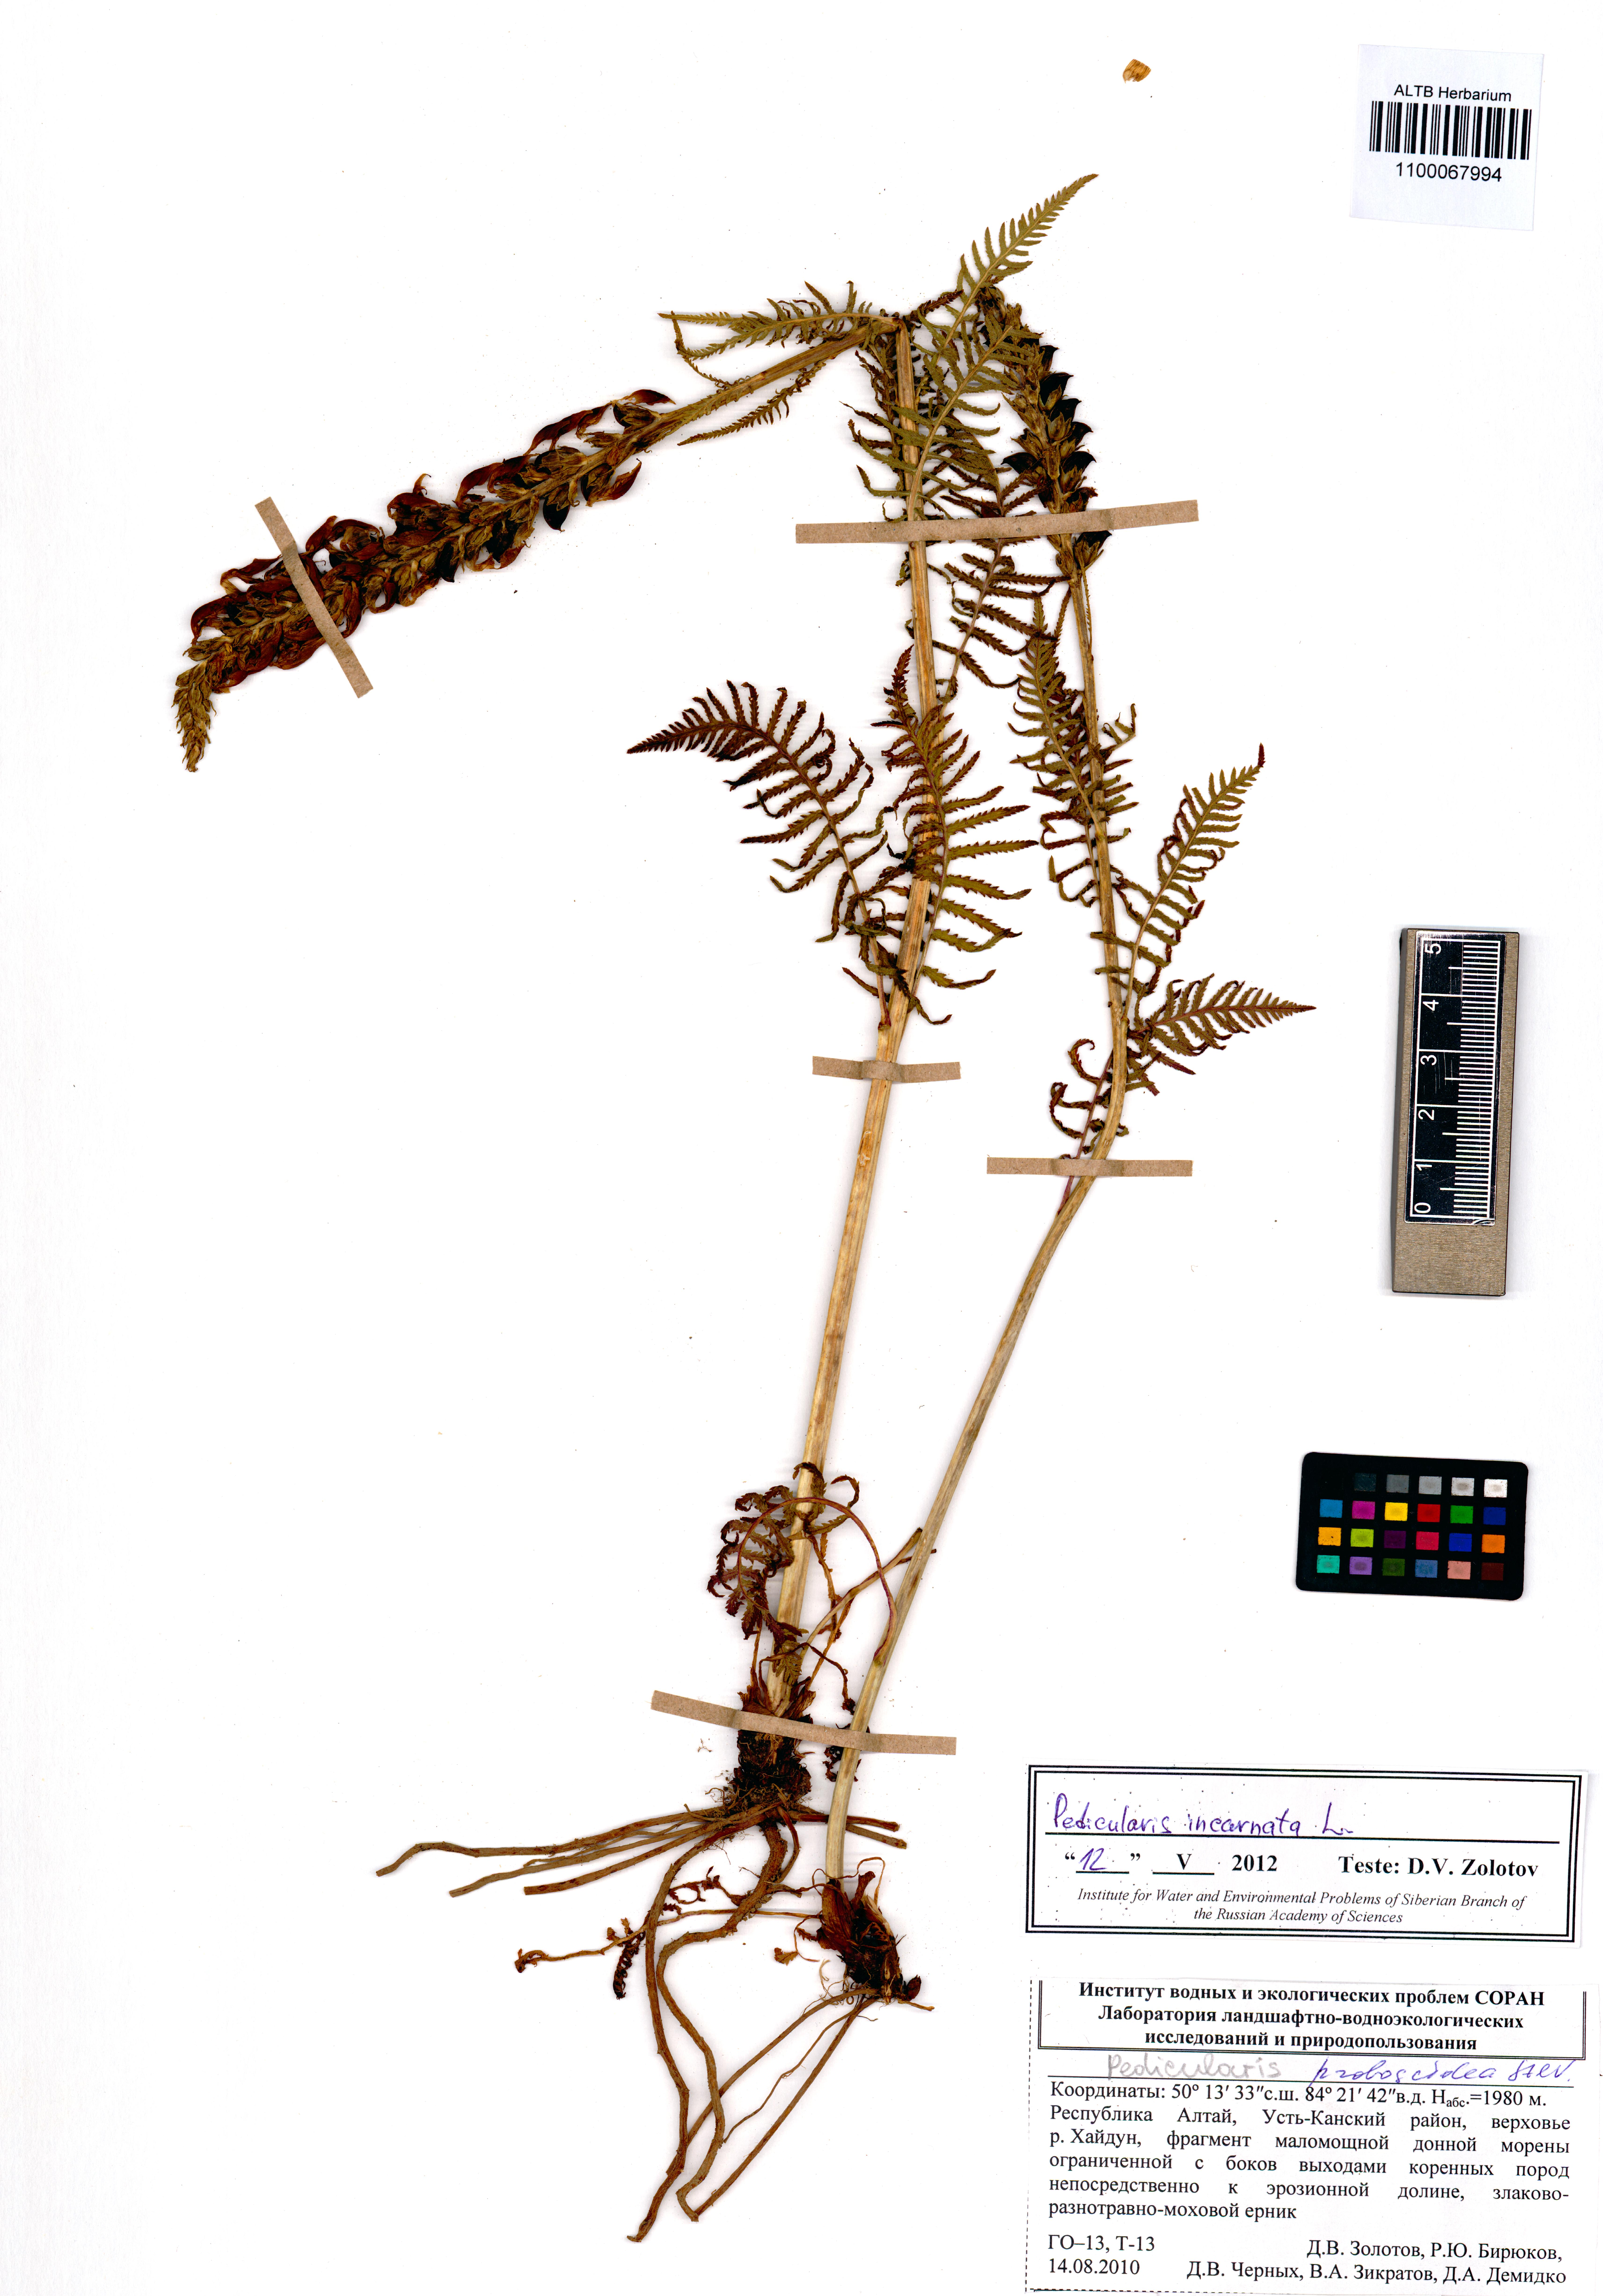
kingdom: Plantae
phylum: Tracheophyta
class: Magnoliopsida
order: Lamiales
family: Orobanchaceae
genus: Pedicularis
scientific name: Pedicularis incarnata
